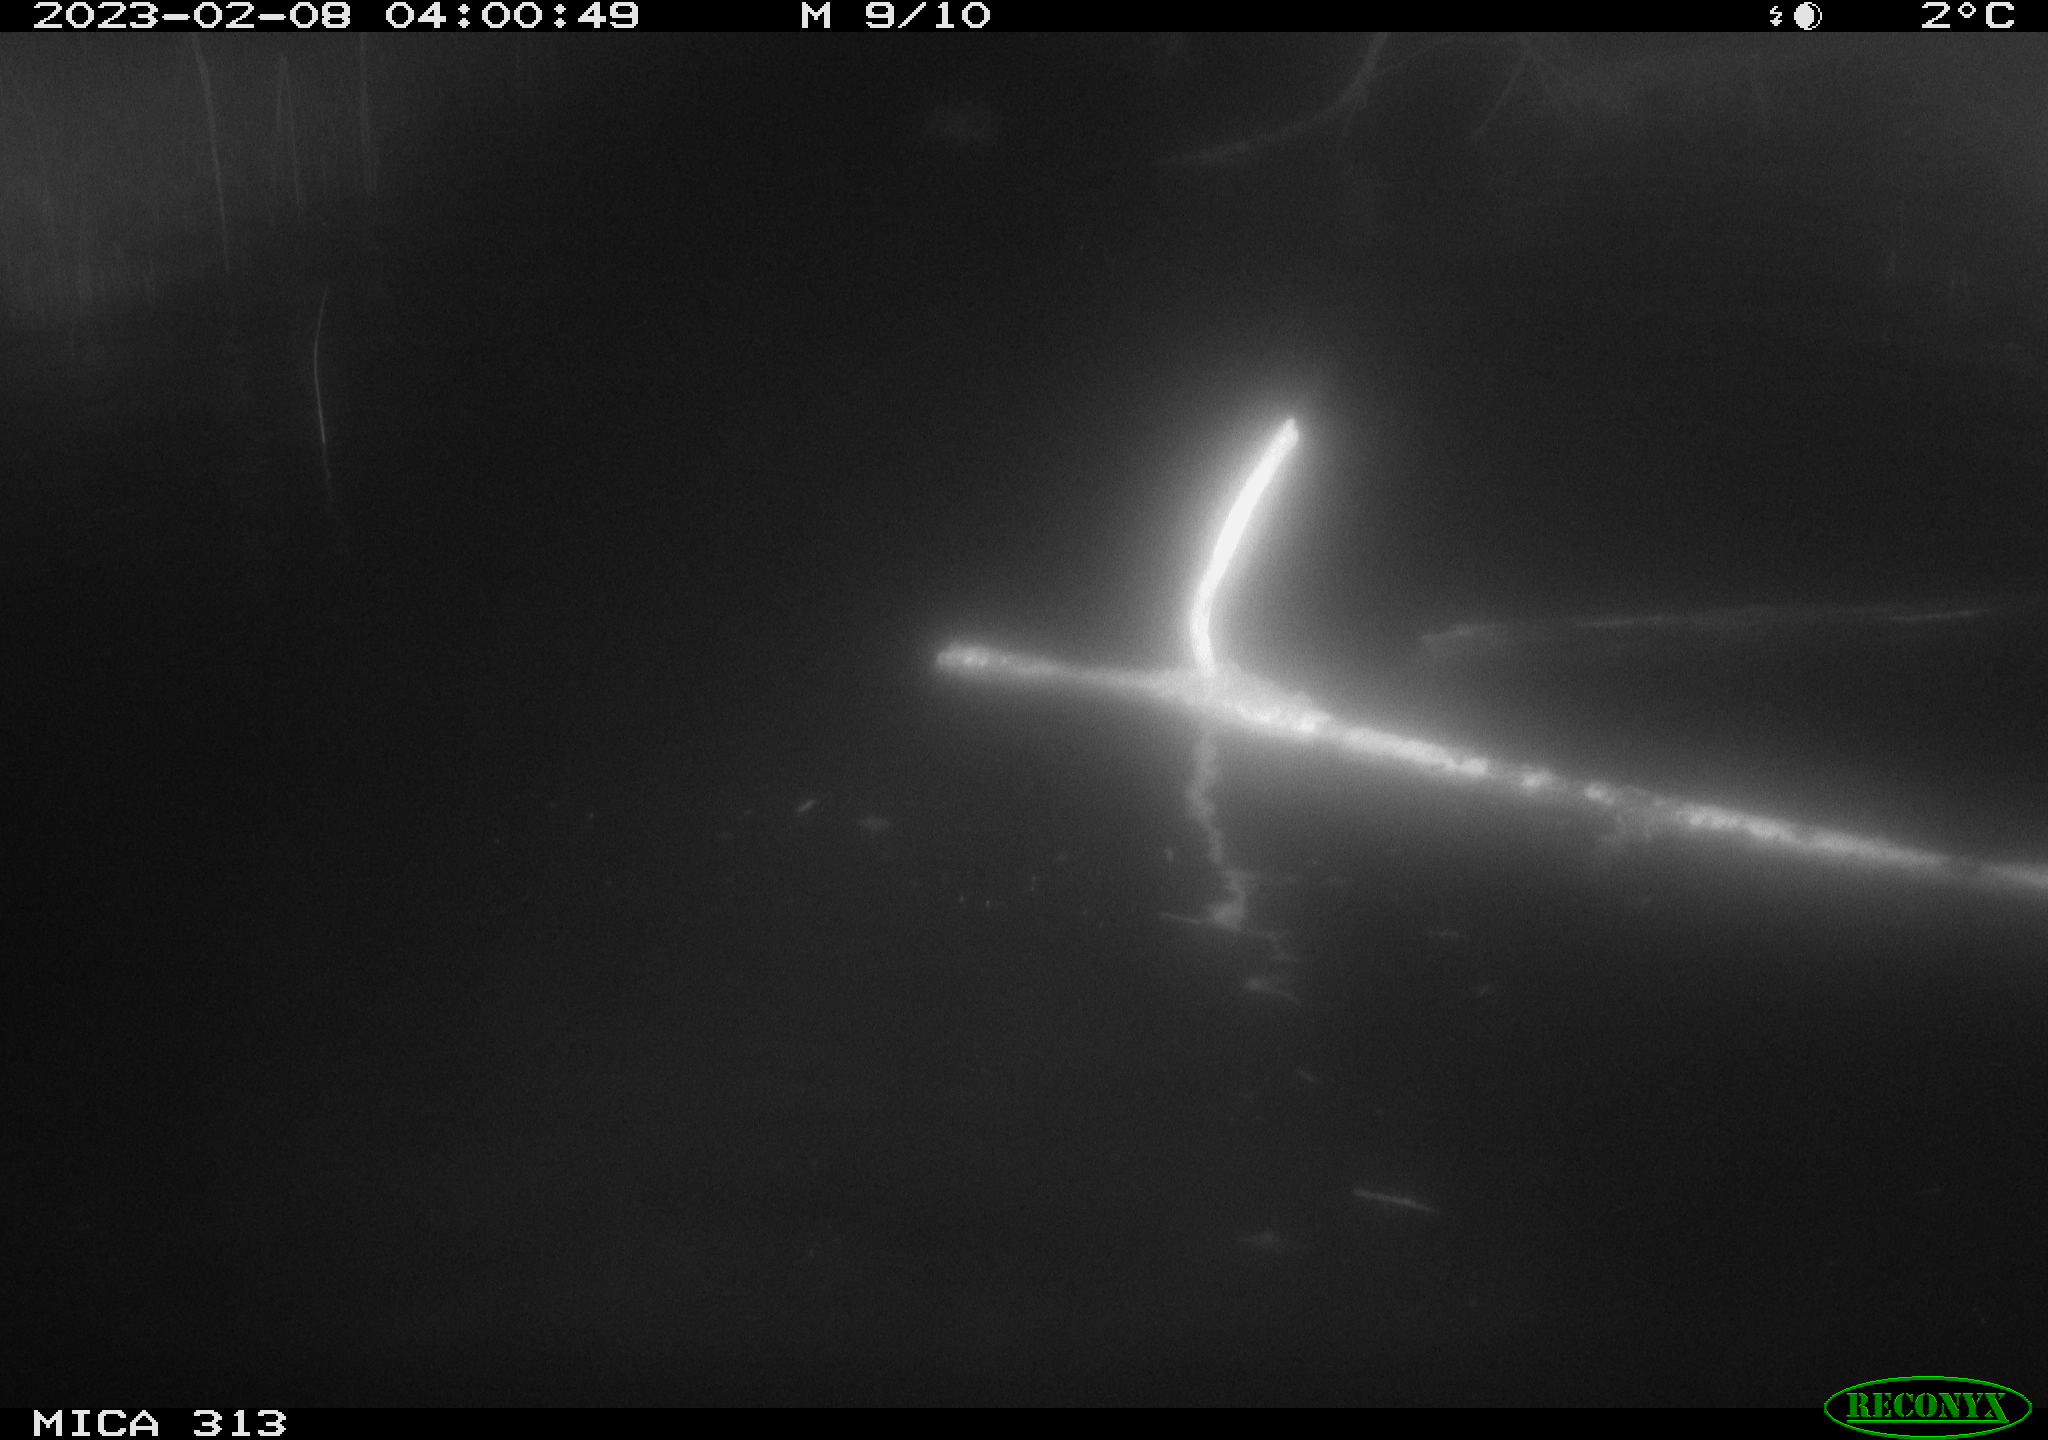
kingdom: Animalia
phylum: Chordata
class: Aves
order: Anseriformes
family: Anatidae
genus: Anas
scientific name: Anas
